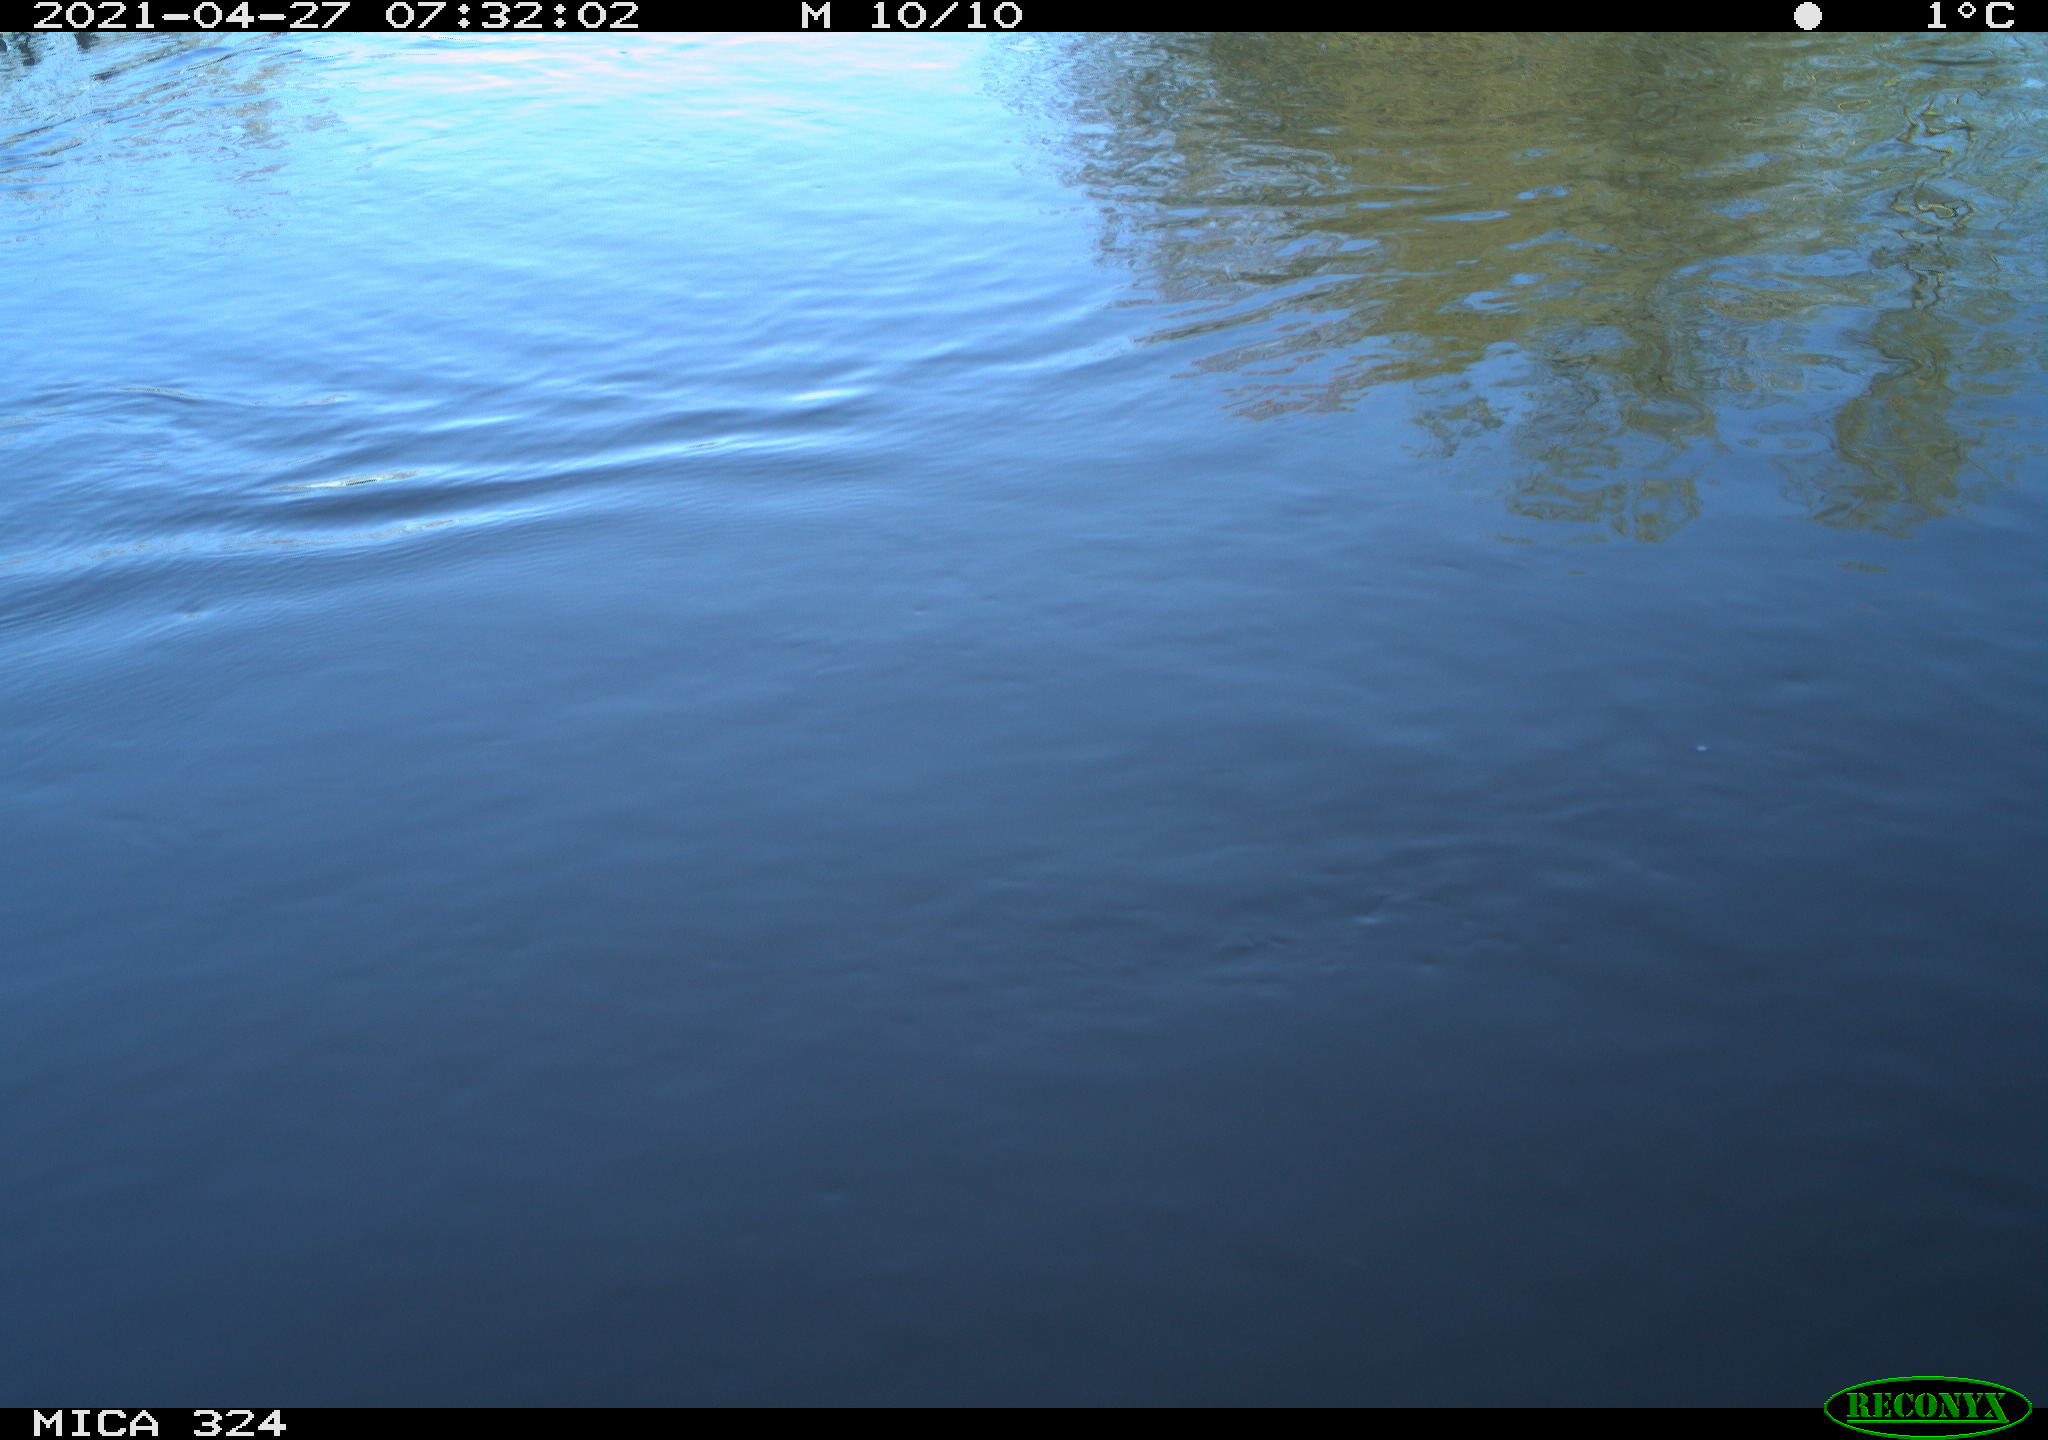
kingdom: Animalia
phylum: Chordata
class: Aves
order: Gruiformes
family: Rallidae
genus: Gallinula
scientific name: Gallinula chloropus
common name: Common moorhen
